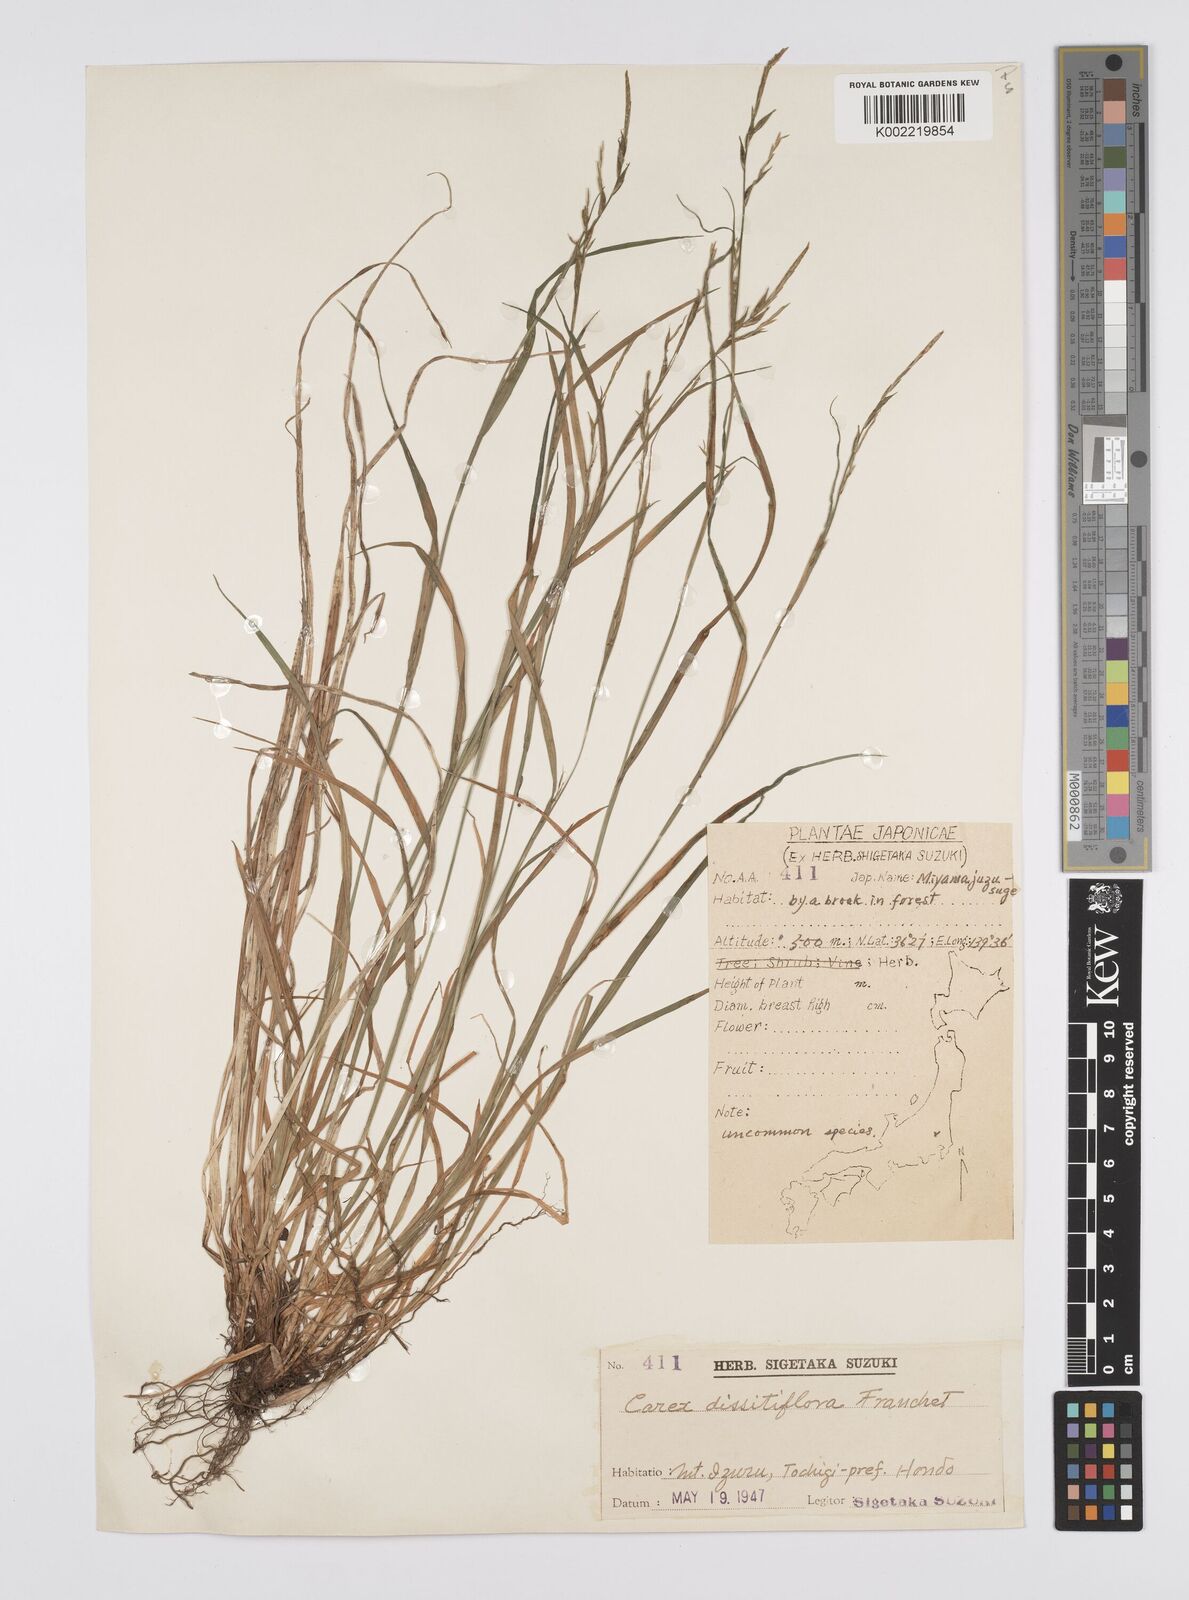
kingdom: Plantae
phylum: Tracheophyta
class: Liliopsida
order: Poales
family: Cyperaceae
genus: Carex
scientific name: Carex dissitiflora
